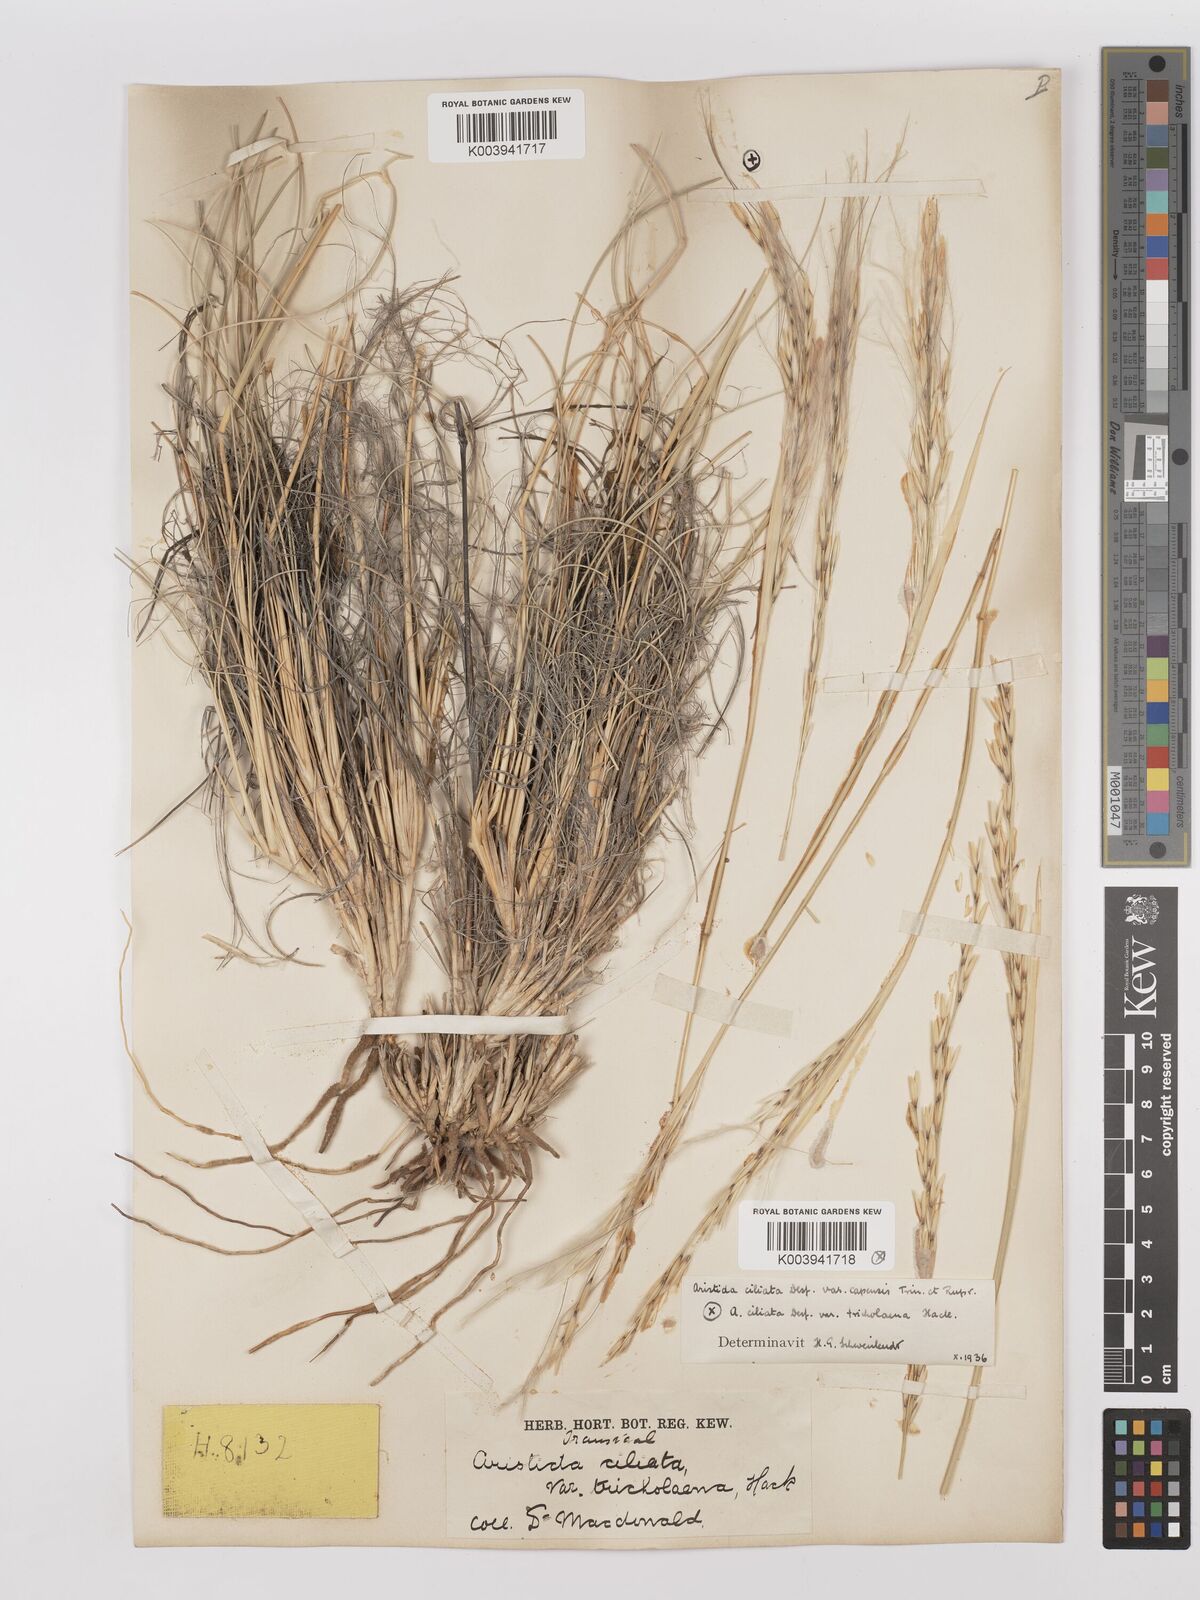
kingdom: Plantae
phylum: Tracheophyta
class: Liliopsida
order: Poales
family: Poaceae
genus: Stipagrostis
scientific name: Stipagrostis ciliata
